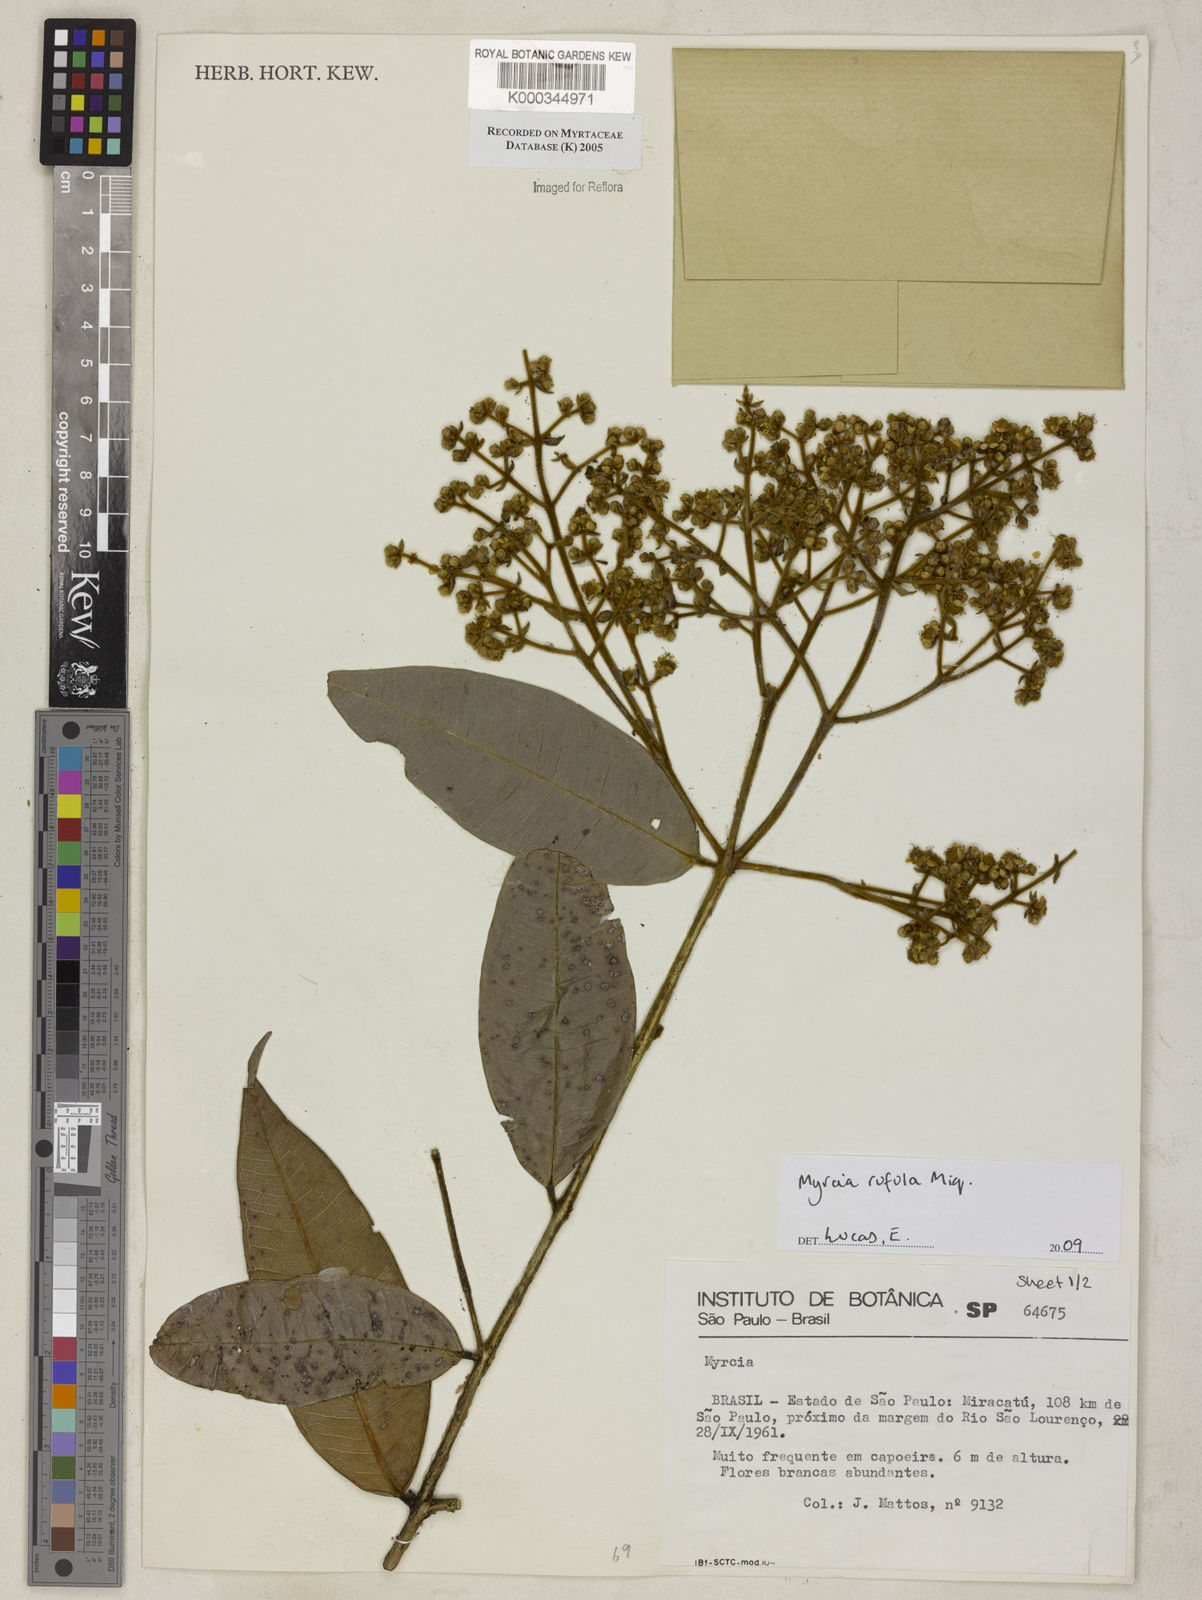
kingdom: Plantae
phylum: Tracheophyta
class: Magnoliopsida
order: Myrtales
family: Myrtaceae
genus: Myrcia
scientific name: Myrcia
